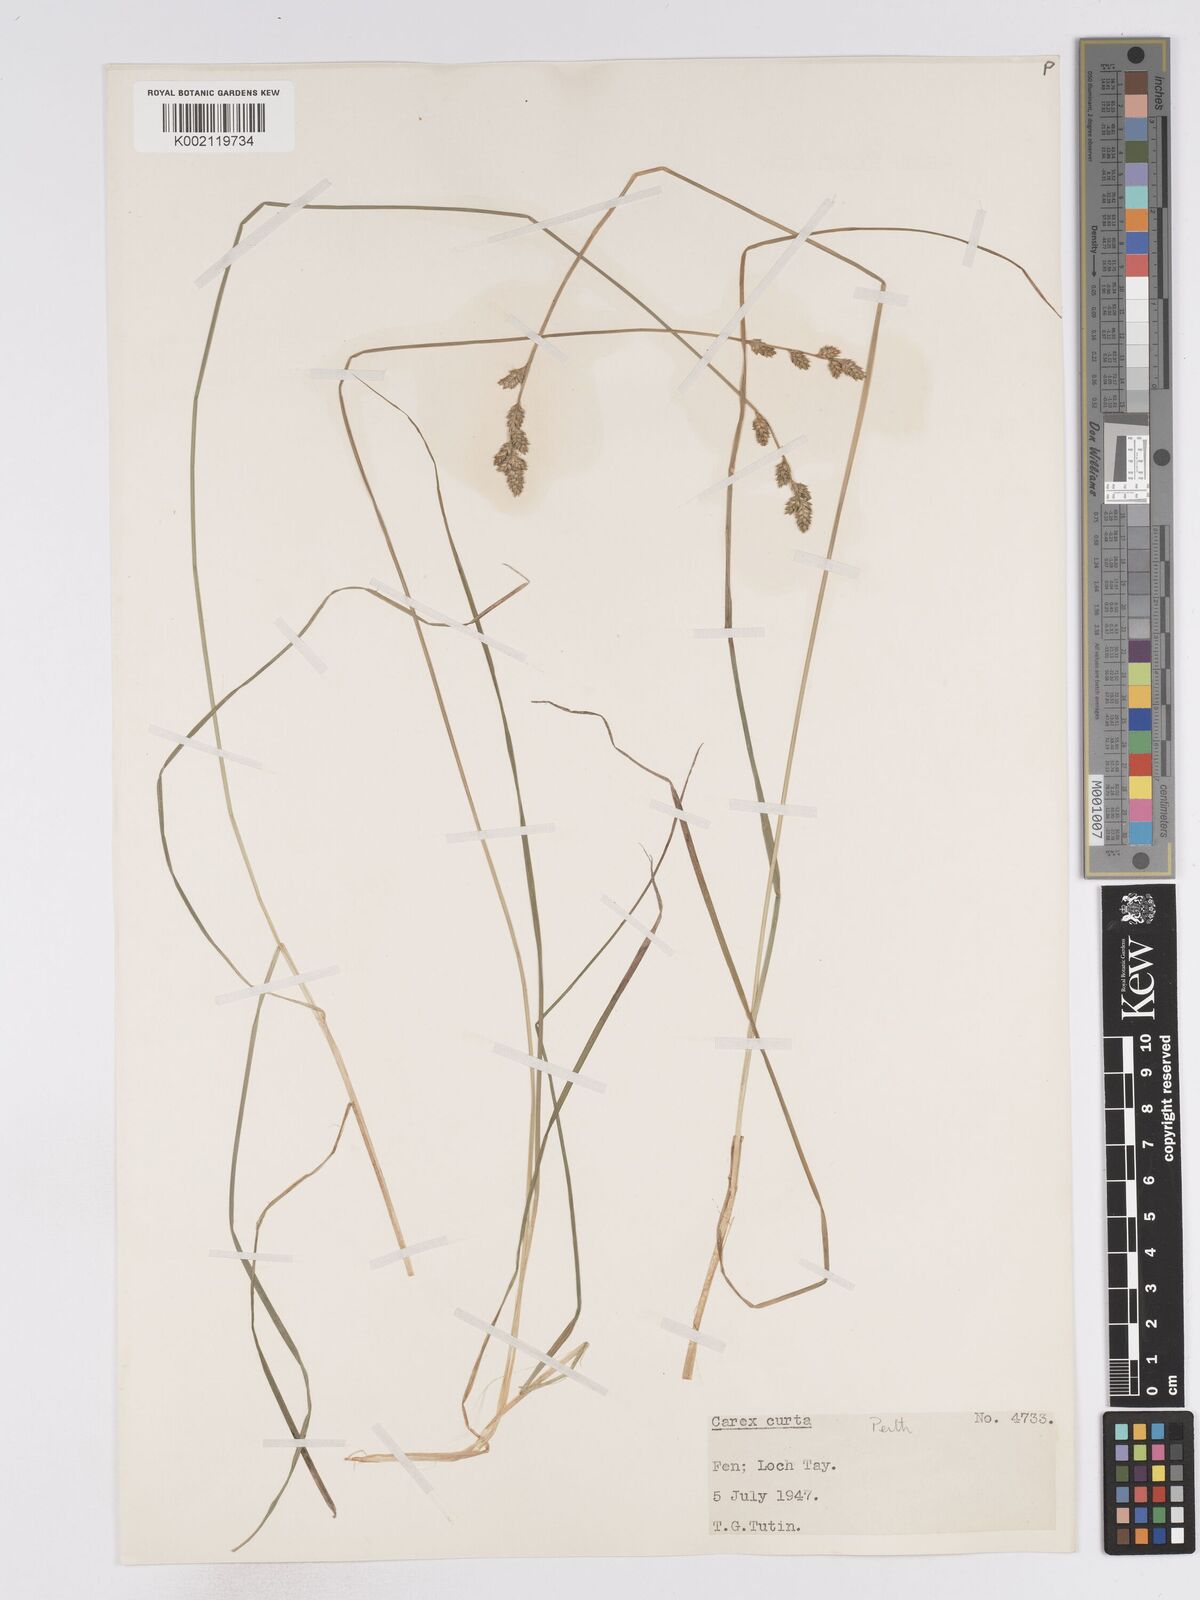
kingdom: Plantae
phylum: Tracheophyta
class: Liliopsida
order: Poales
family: Cyperaceae
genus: Carex
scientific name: Carex curta
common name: White sedge
